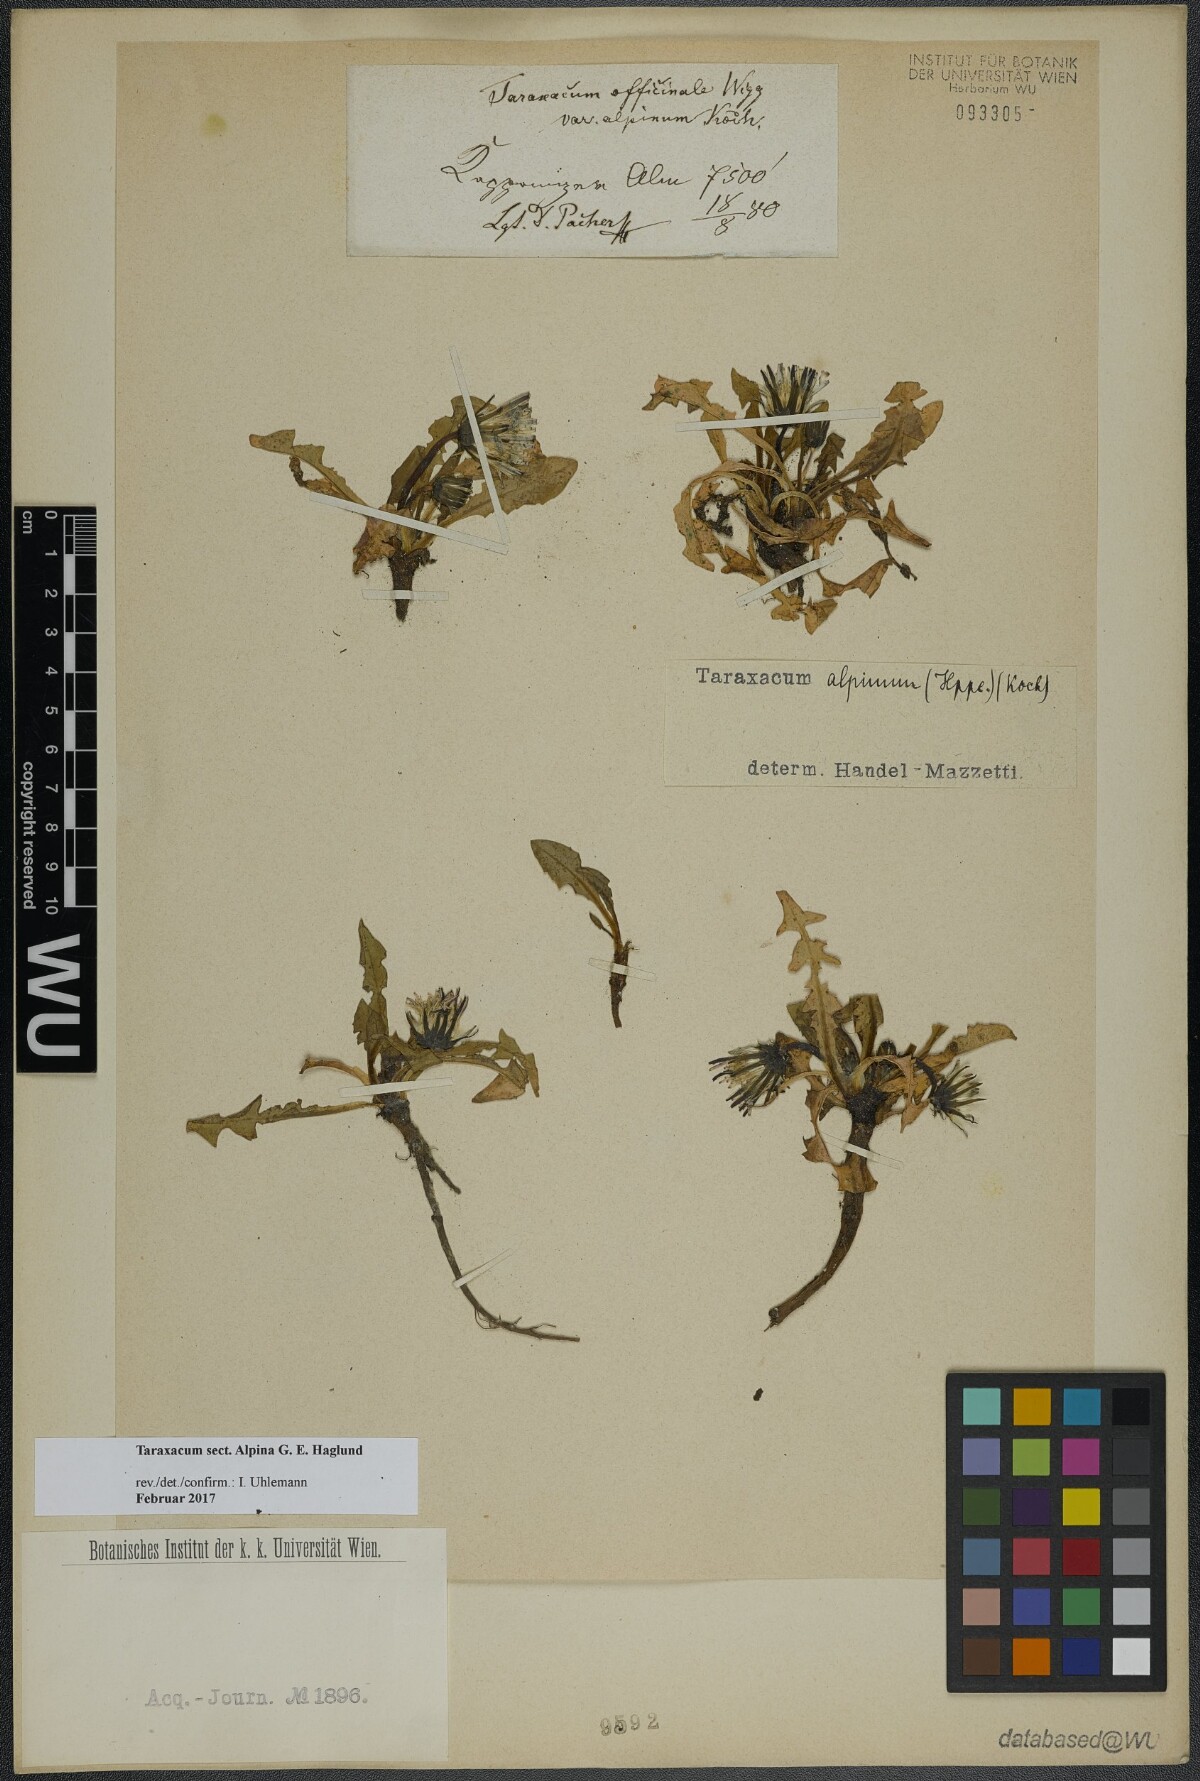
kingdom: Plantae
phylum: Tracheophyta
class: Magnoliopsida
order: Asterales
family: Asteraceae
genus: Taraxacum
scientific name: Taraxacum
